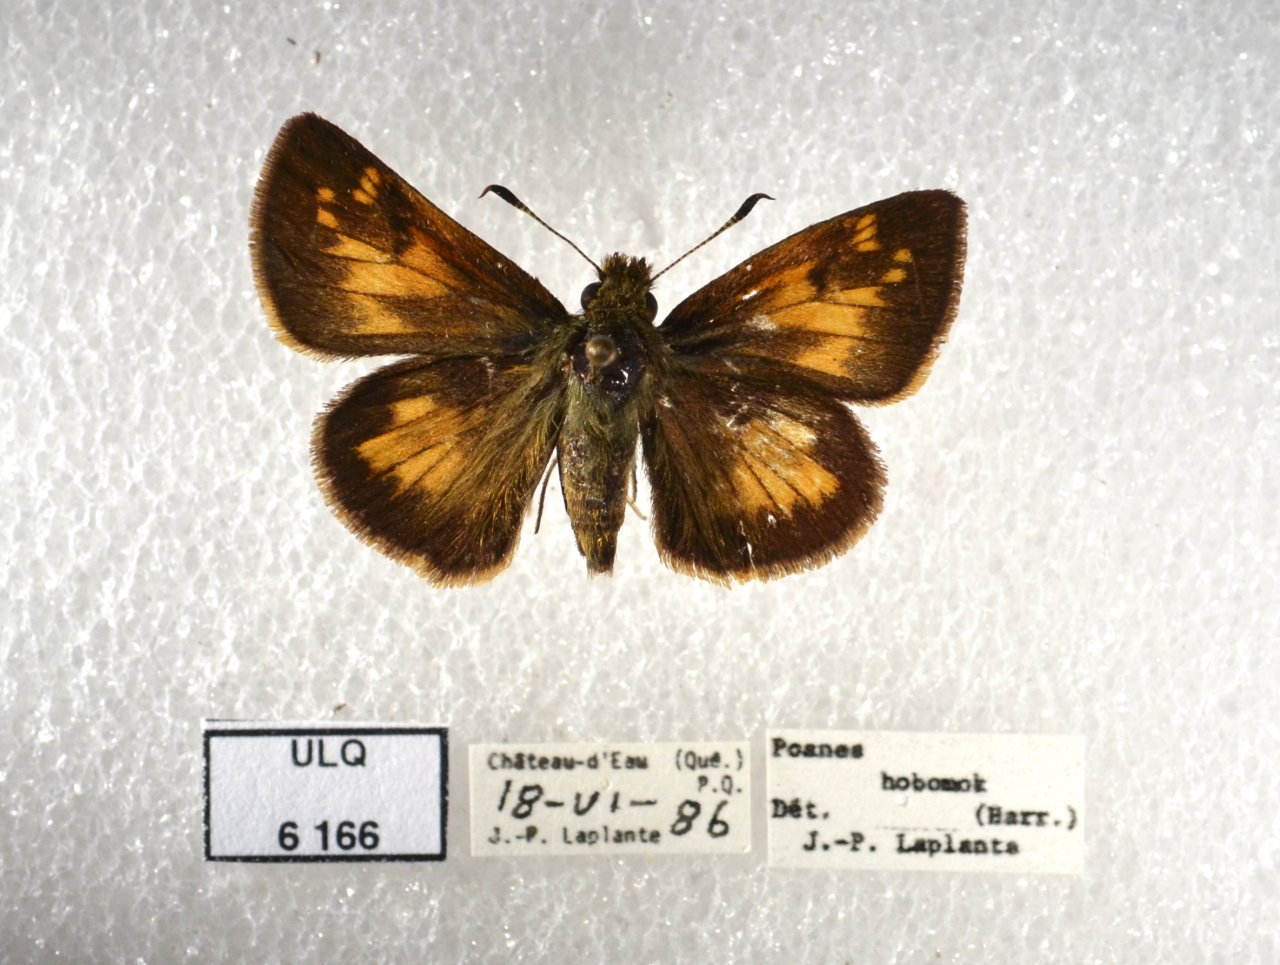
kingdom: Animalia
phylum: Arthropoda
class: Insecta
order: Lepidoptera
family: Hesperiidae
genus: Lon
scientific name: Lon hobomok
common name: Hobomok Skipper
